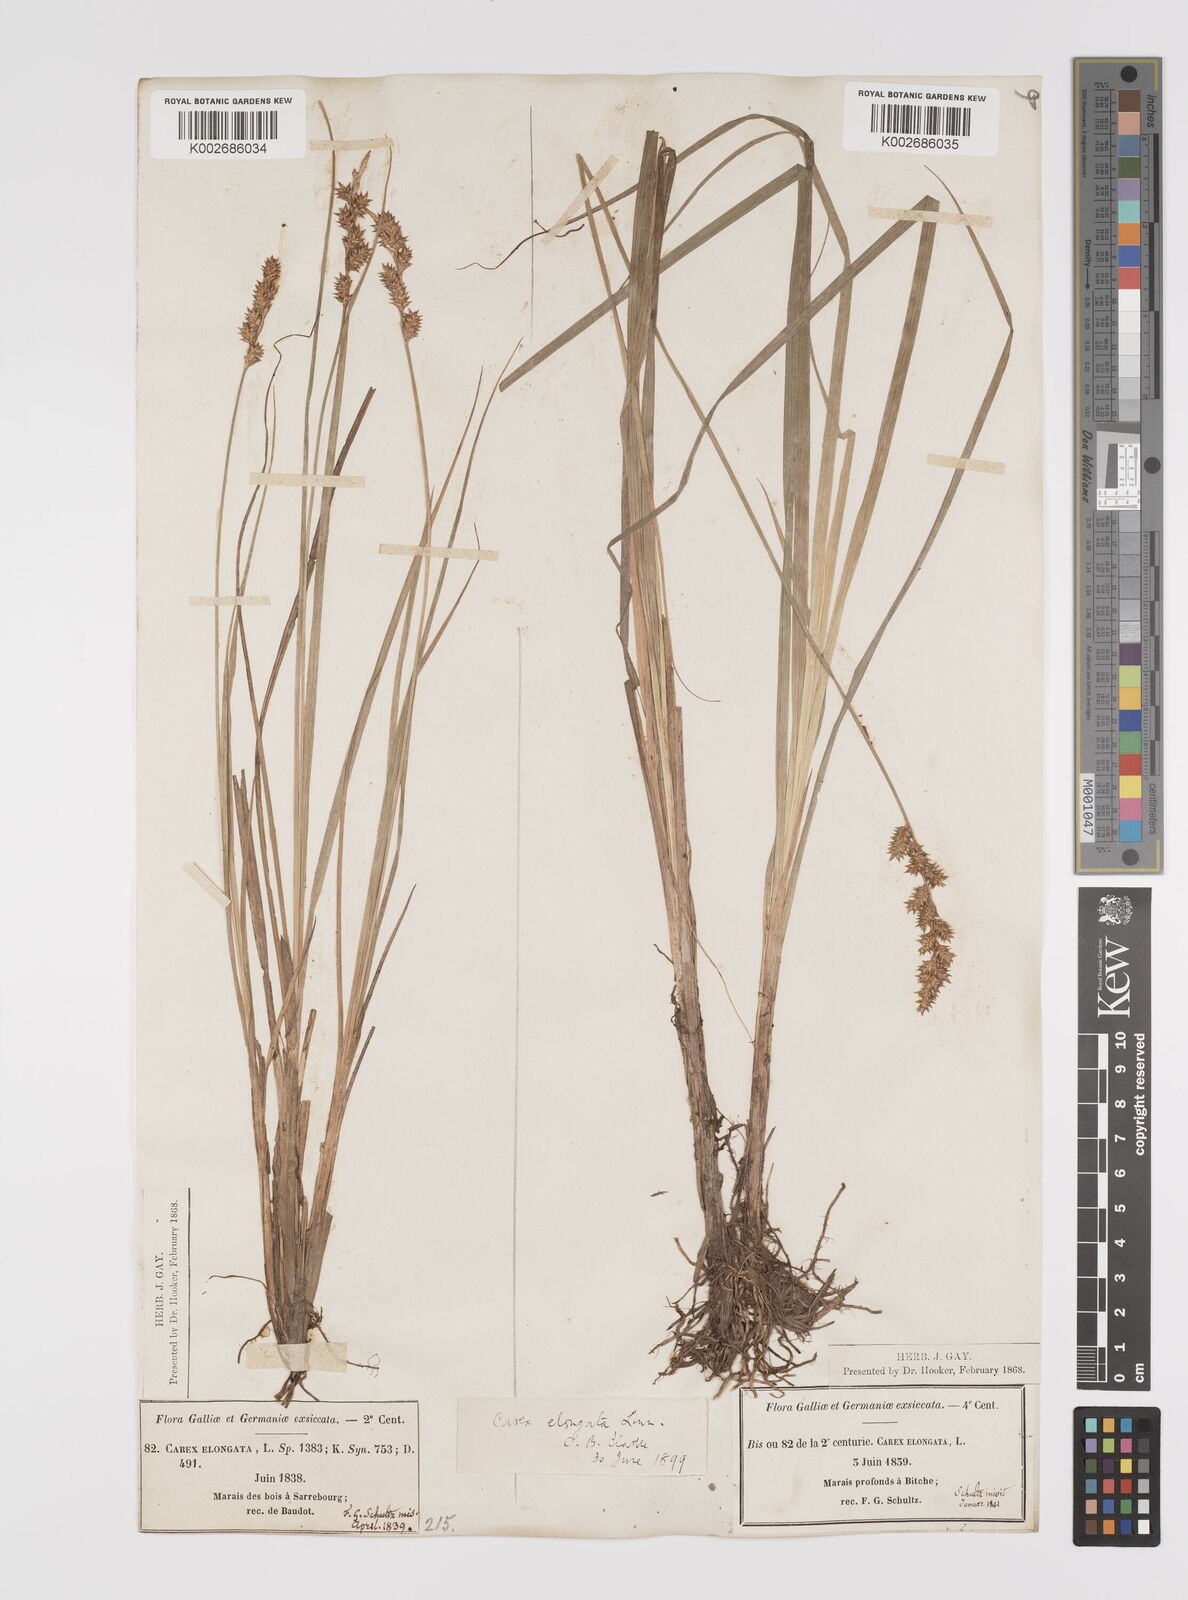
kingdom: Plantae
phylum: Tracheophyta
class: Liliopsida
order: Poales
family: Cyperaceae
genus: Carex
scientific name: Carex elongata
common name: Elongated sedge
